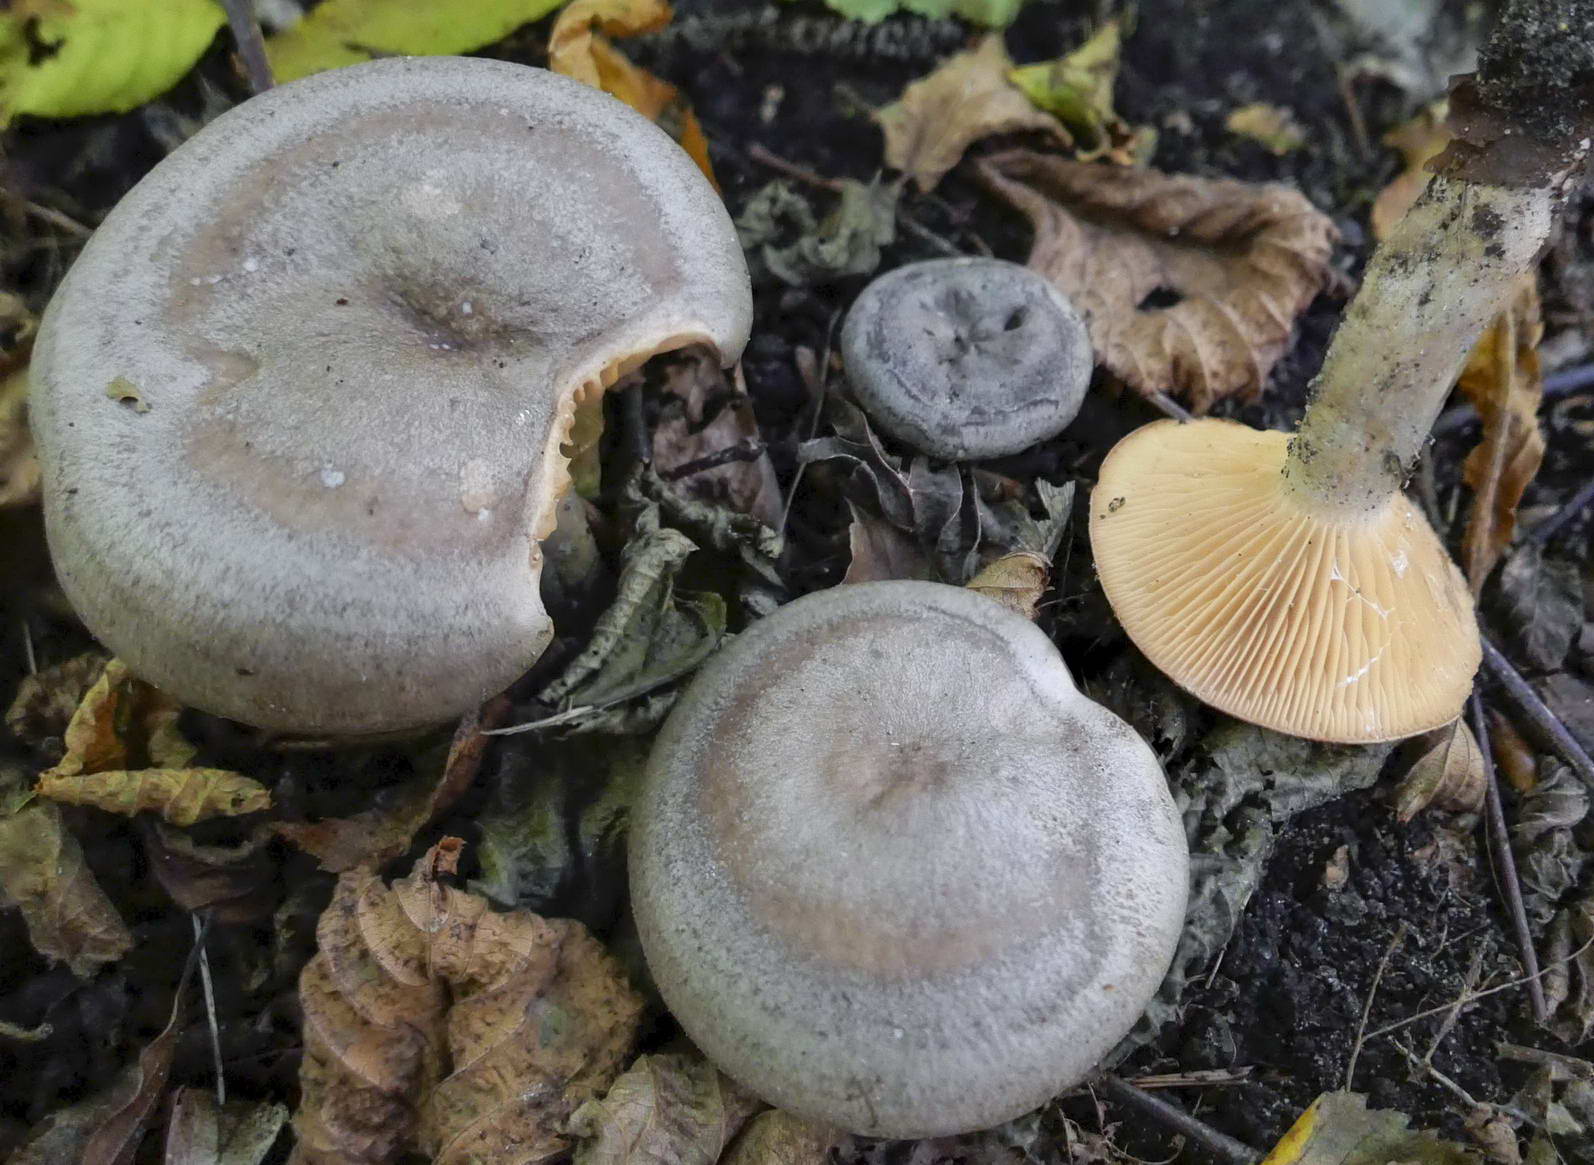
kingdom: Fungi
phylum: Basidiomycota
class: Agaricomycetes
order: Russulales
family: Russulaceae
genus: Lactarius
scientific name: Lactarius pyrogalus
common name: hassel-mælkehat
